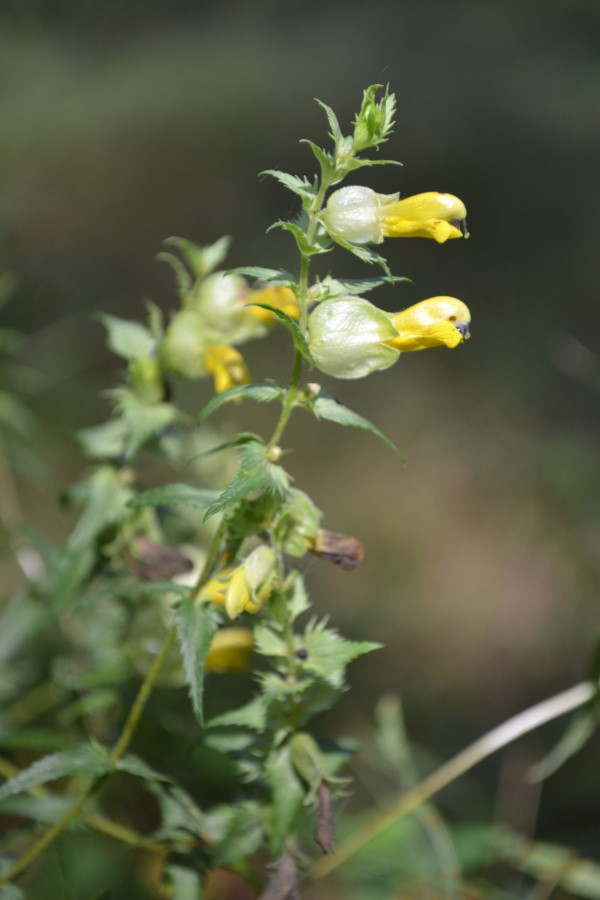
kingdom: Plantae
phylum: Tracheophyta
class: Magnoliopsida
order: Lamiales
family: Orobanchaceae
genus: Rhinanthus
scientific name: Rhinanthus serotinus
